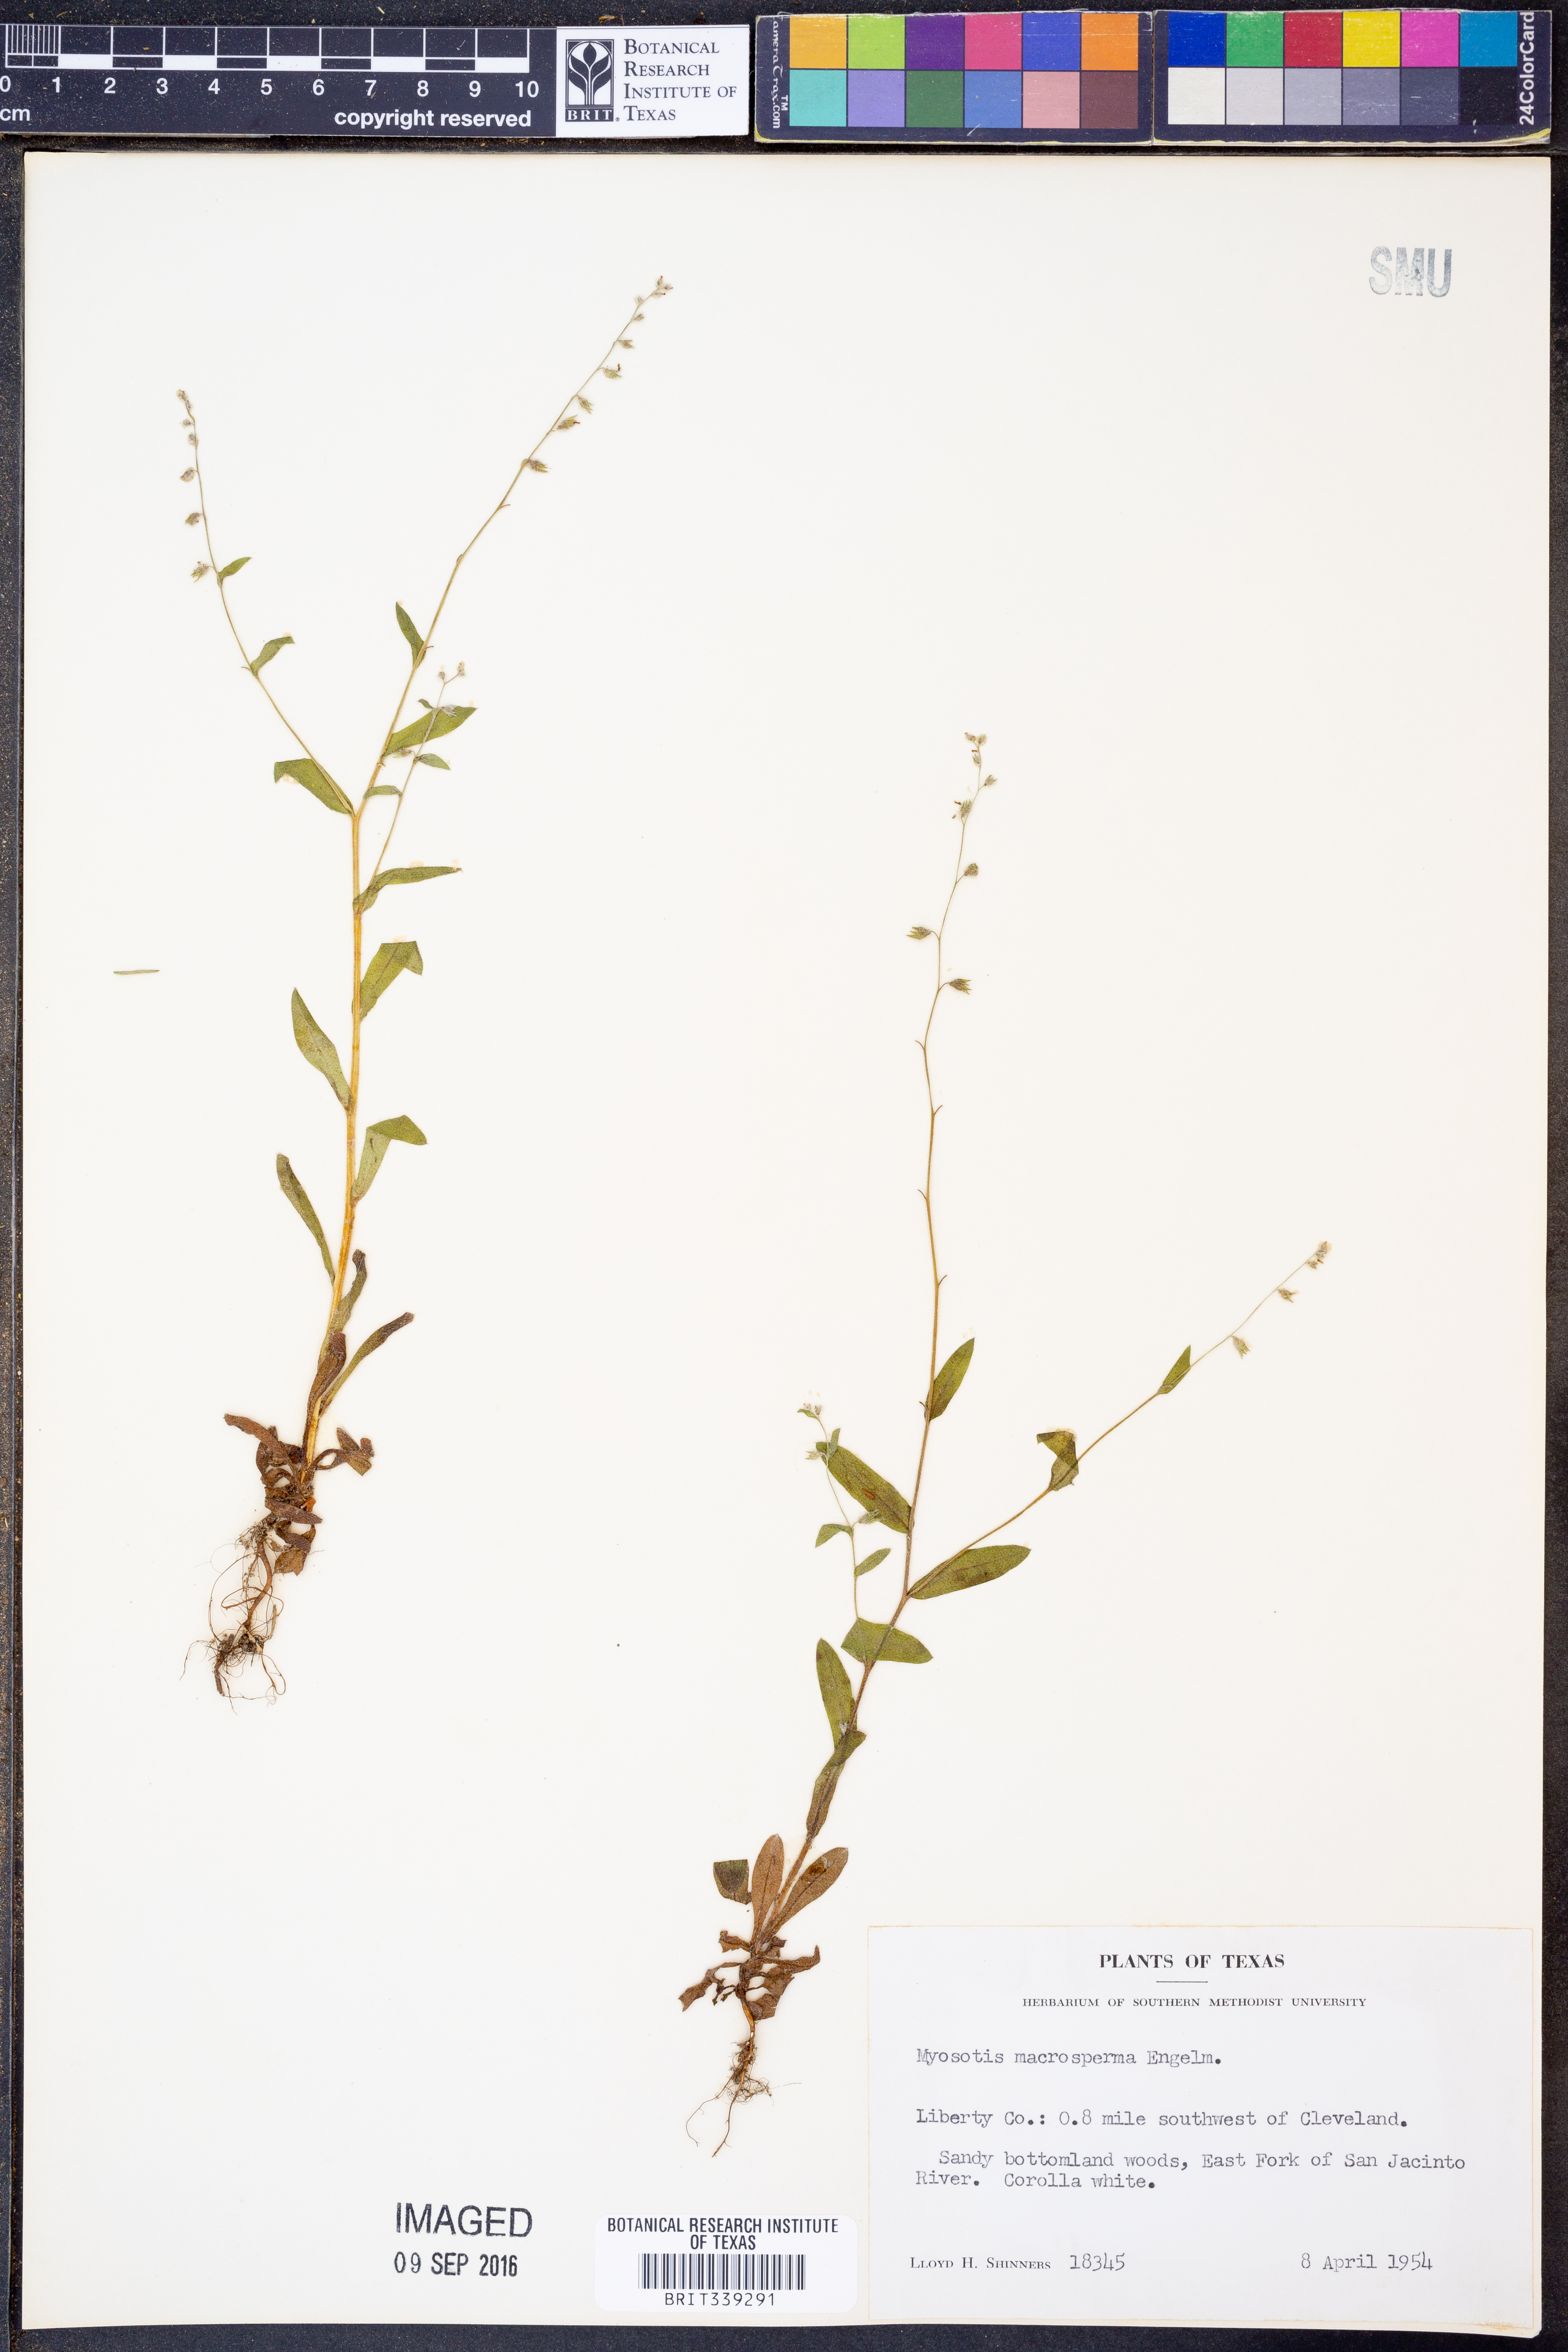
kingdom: Plantae
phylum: Tracheophyta
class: Magnoliopsida
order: Boraginales
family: Boraginaceae
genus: Myosotis
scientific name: Myosotis macrosperma
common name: Large-seed forget-me-not
